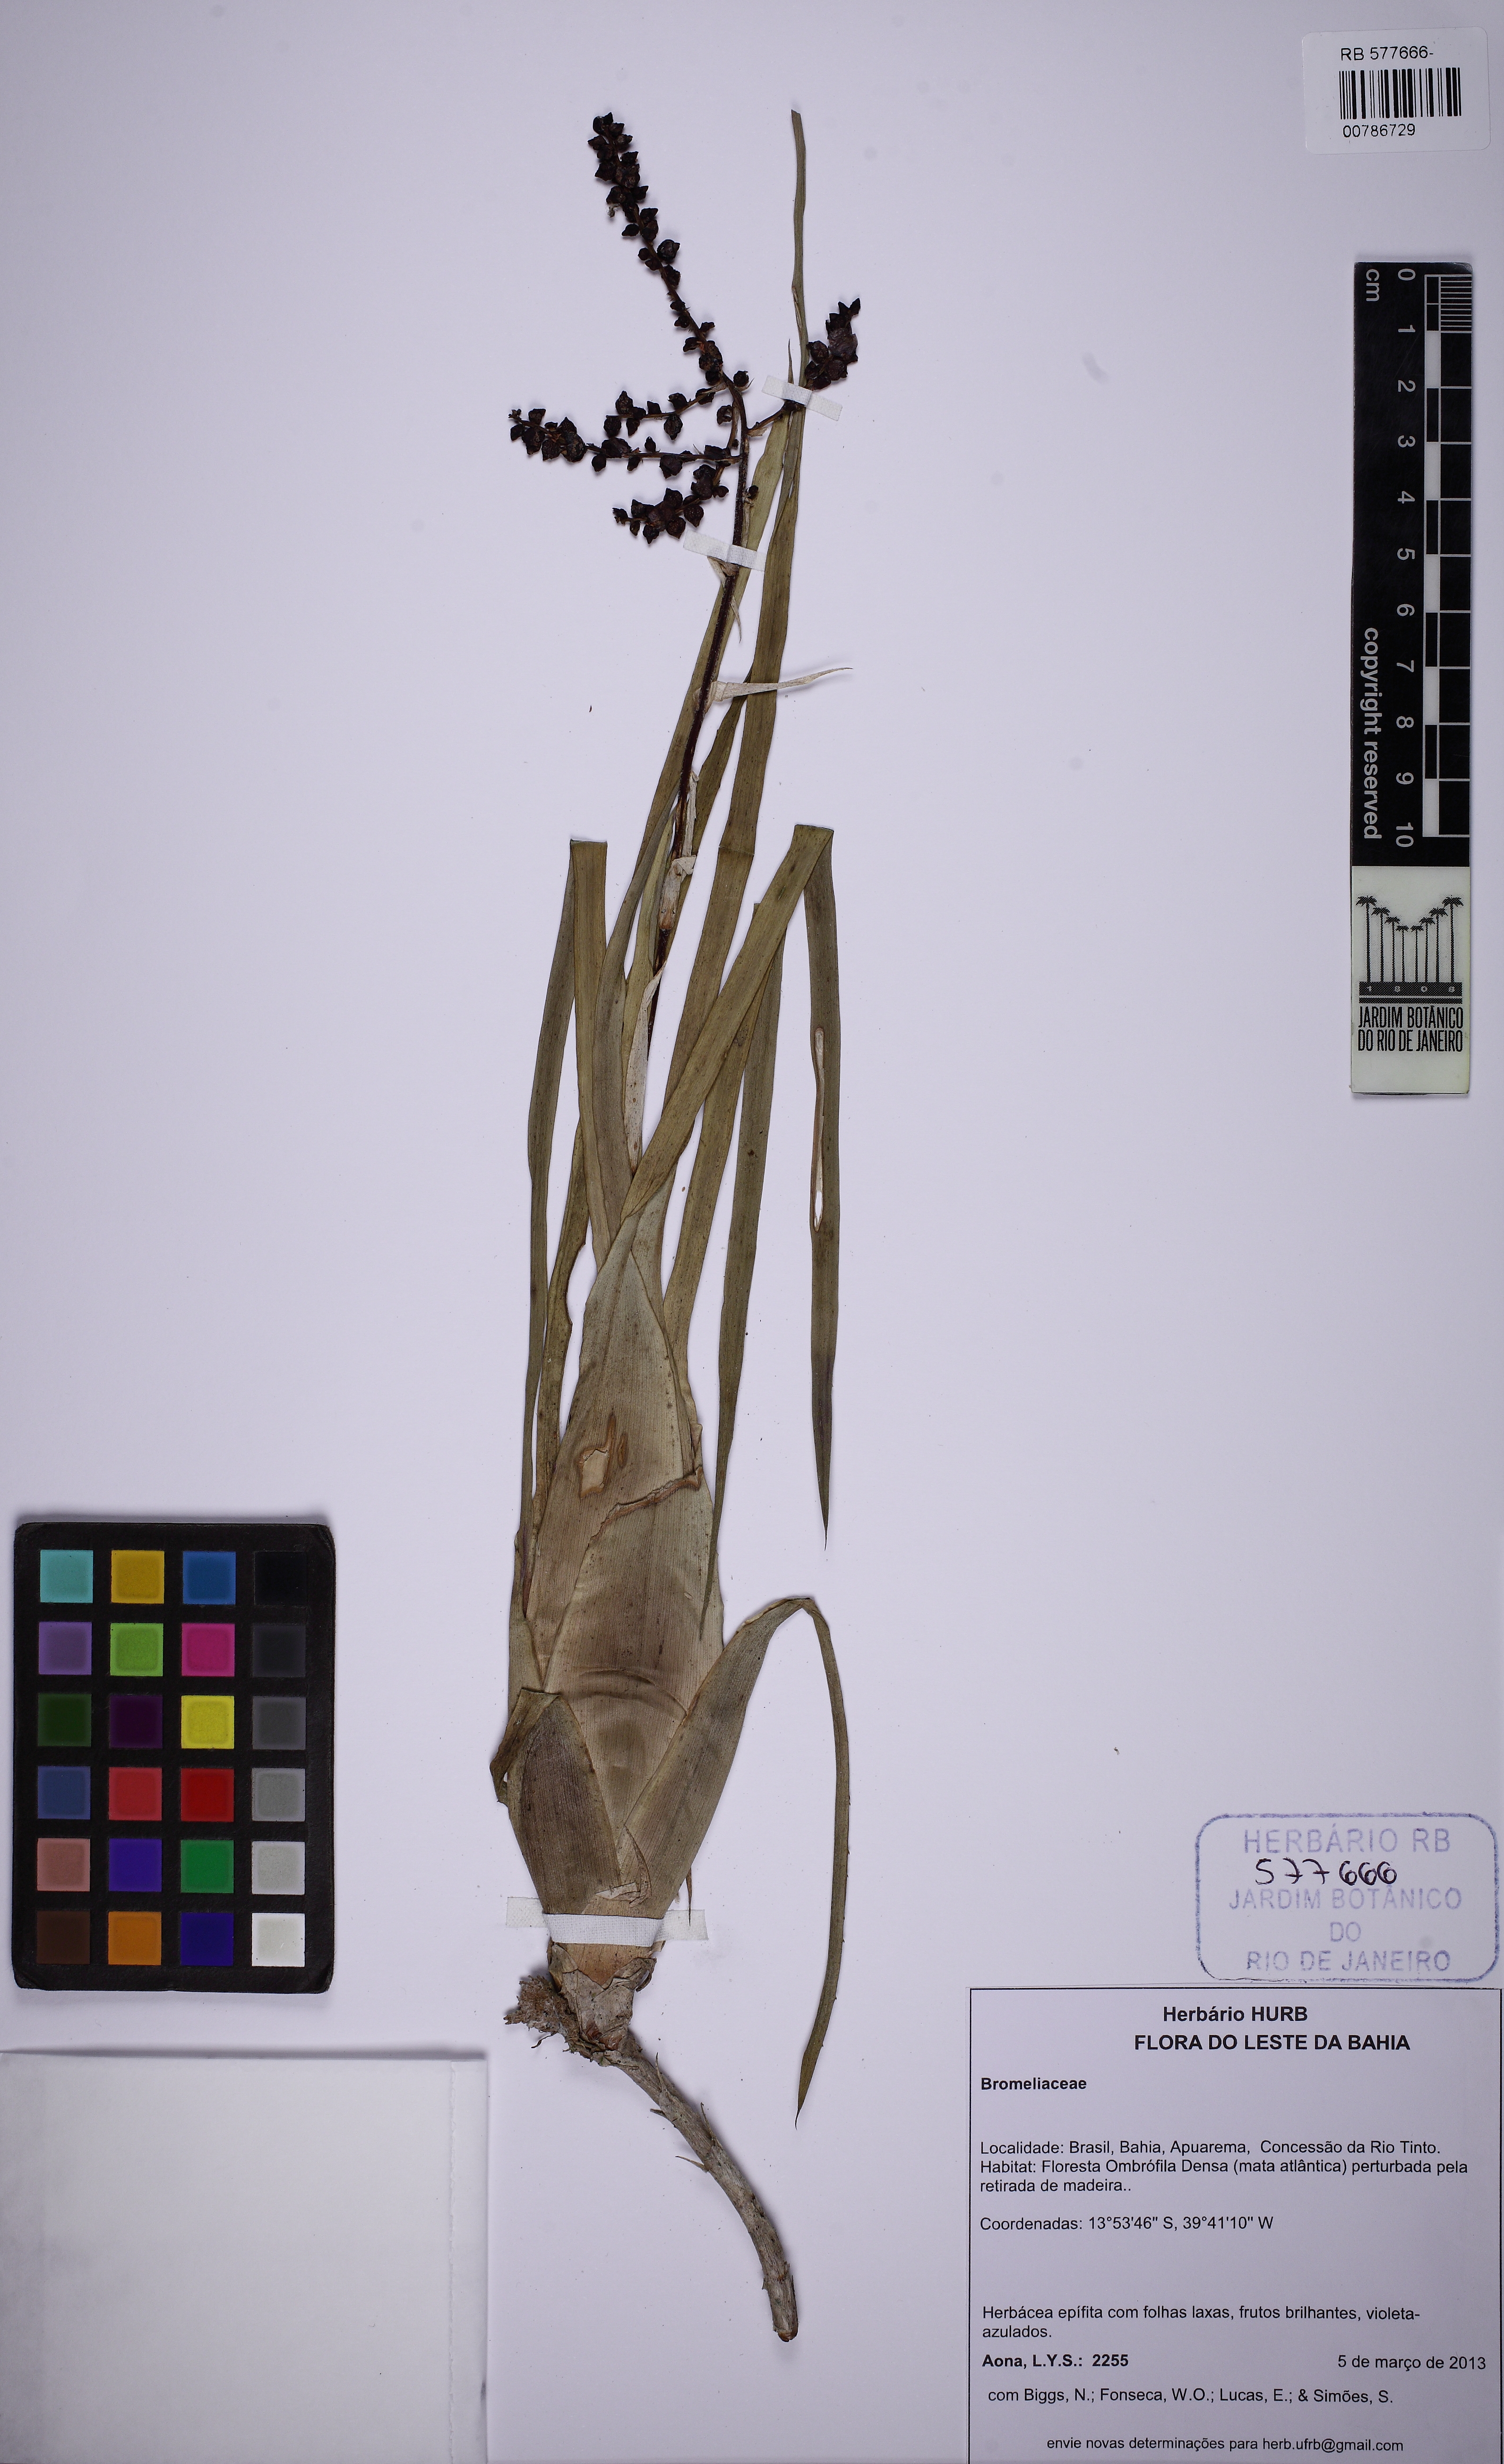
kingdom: Plantae
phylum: Tracheophyta
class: Liliopsida
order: Poales
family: Bromeliaceae
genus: Pseudaraeococcus
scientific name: Pseudaraeococcus sessiliflorus
